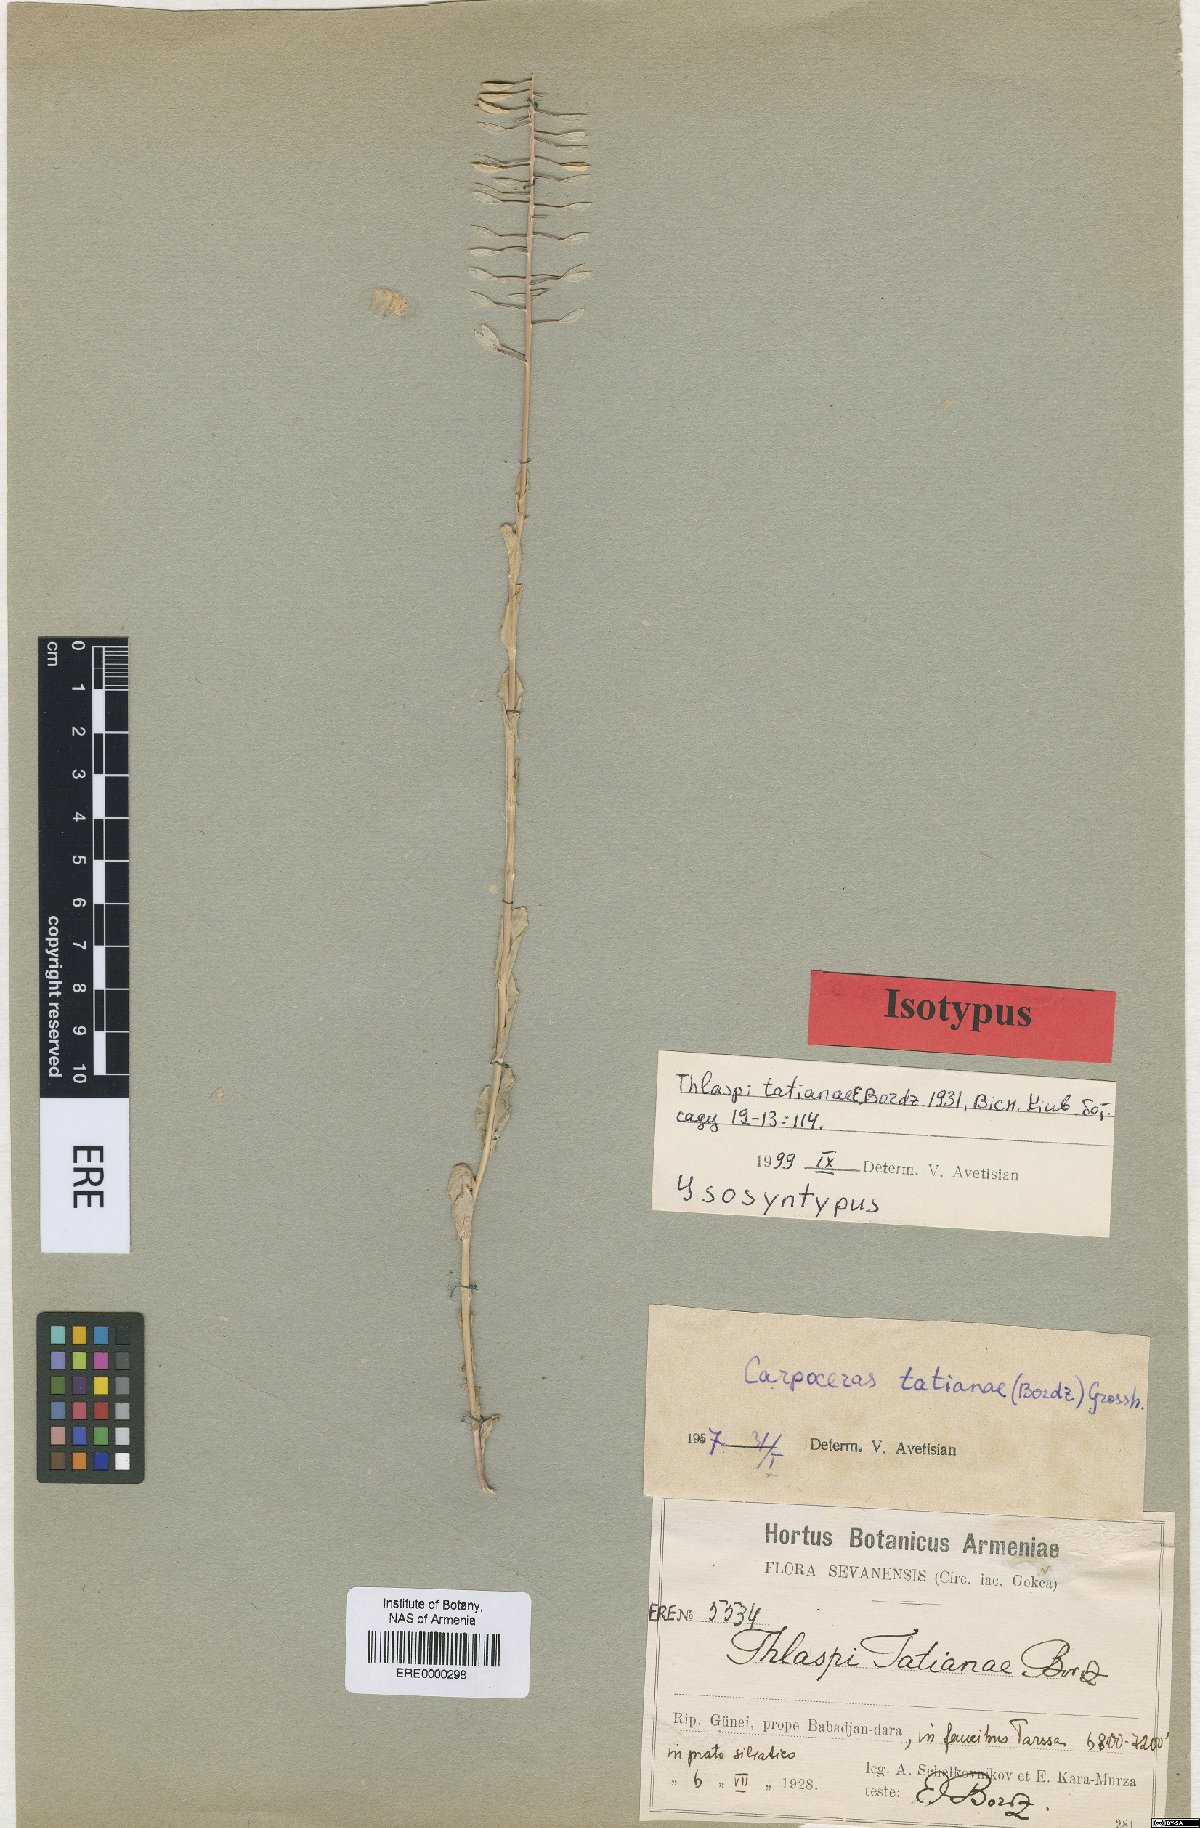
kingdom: Plantae
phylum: Tracheophyta
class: Magnoliopsida
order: Brassicales
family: Brassicaceae
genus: Noccaea
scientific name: Noccaea tatianae
